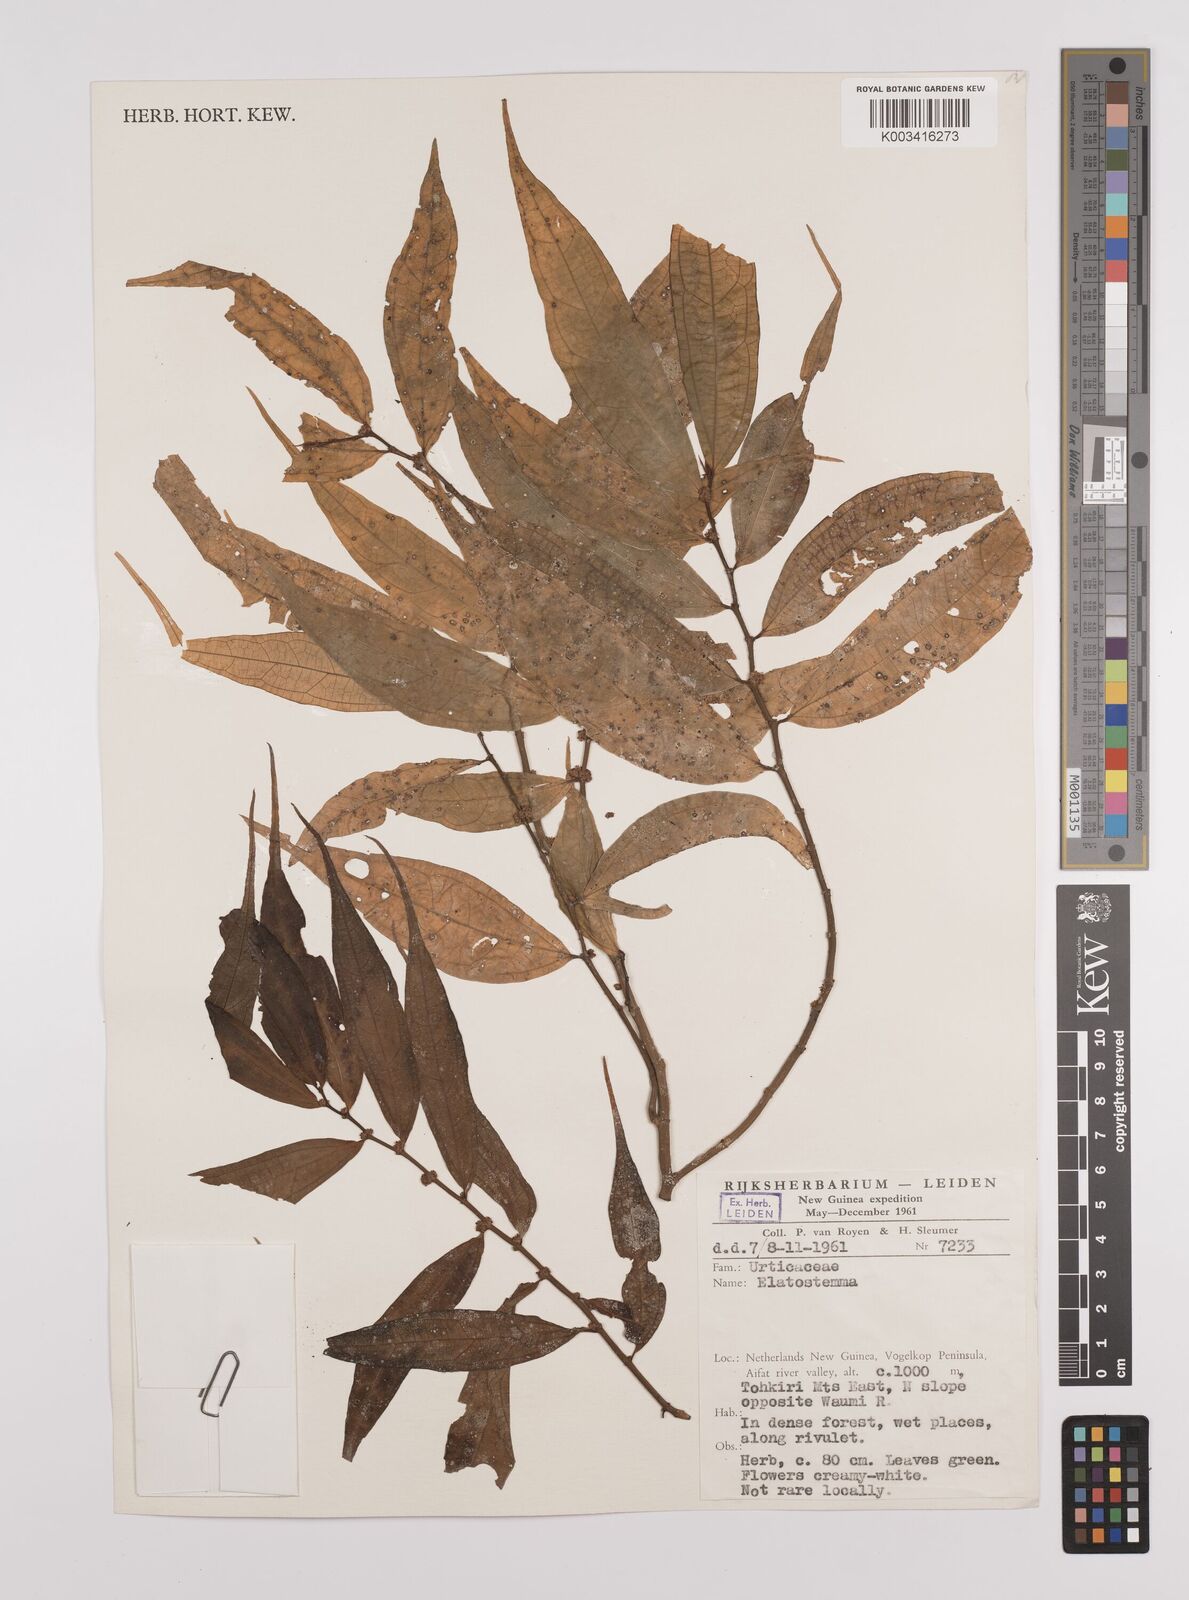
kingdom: Plantae
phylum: Tracheophyta
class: Magnoliopsida
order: Rosales
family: Urticaceae
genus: Elatostema
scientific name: Elatostema integrifolium
